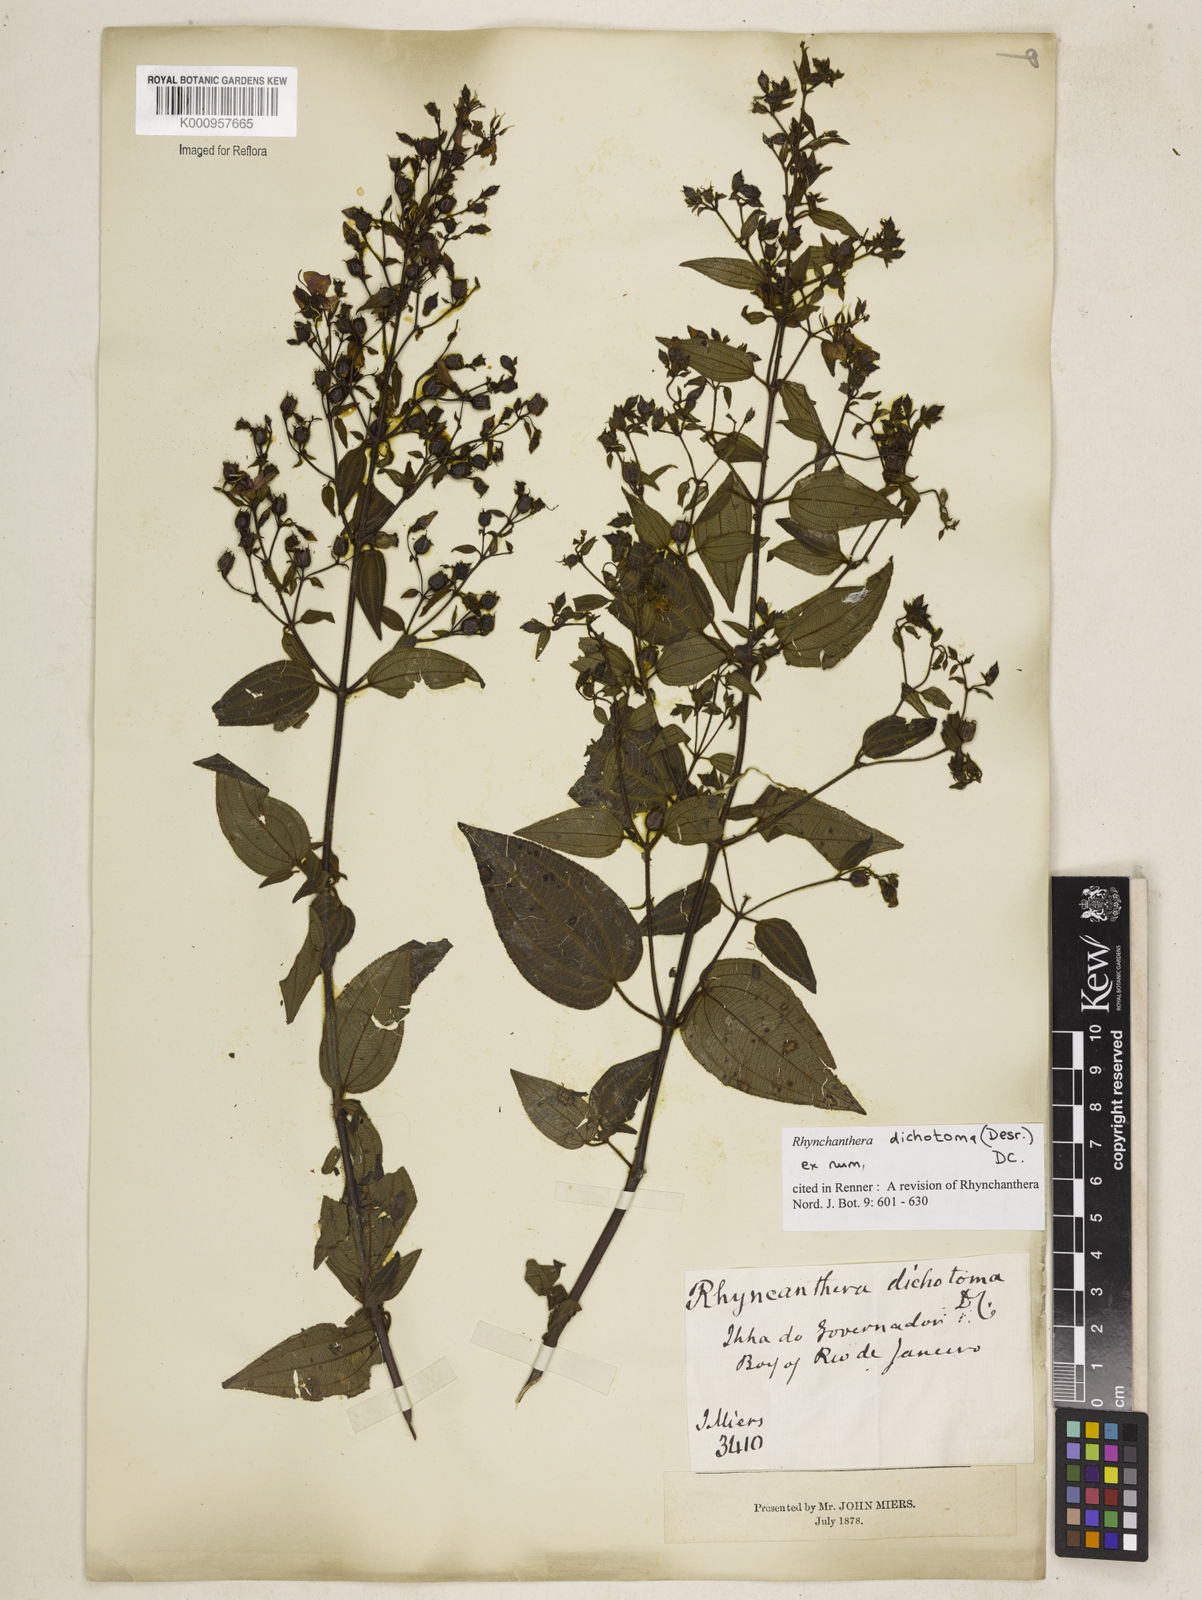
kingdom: Plantae
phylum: Tracheophyta
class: Magnoliopsida
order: Myrtales
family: Melastomataceae
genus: Rhynchanthera
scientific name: Rhynchanthera dichotoma
